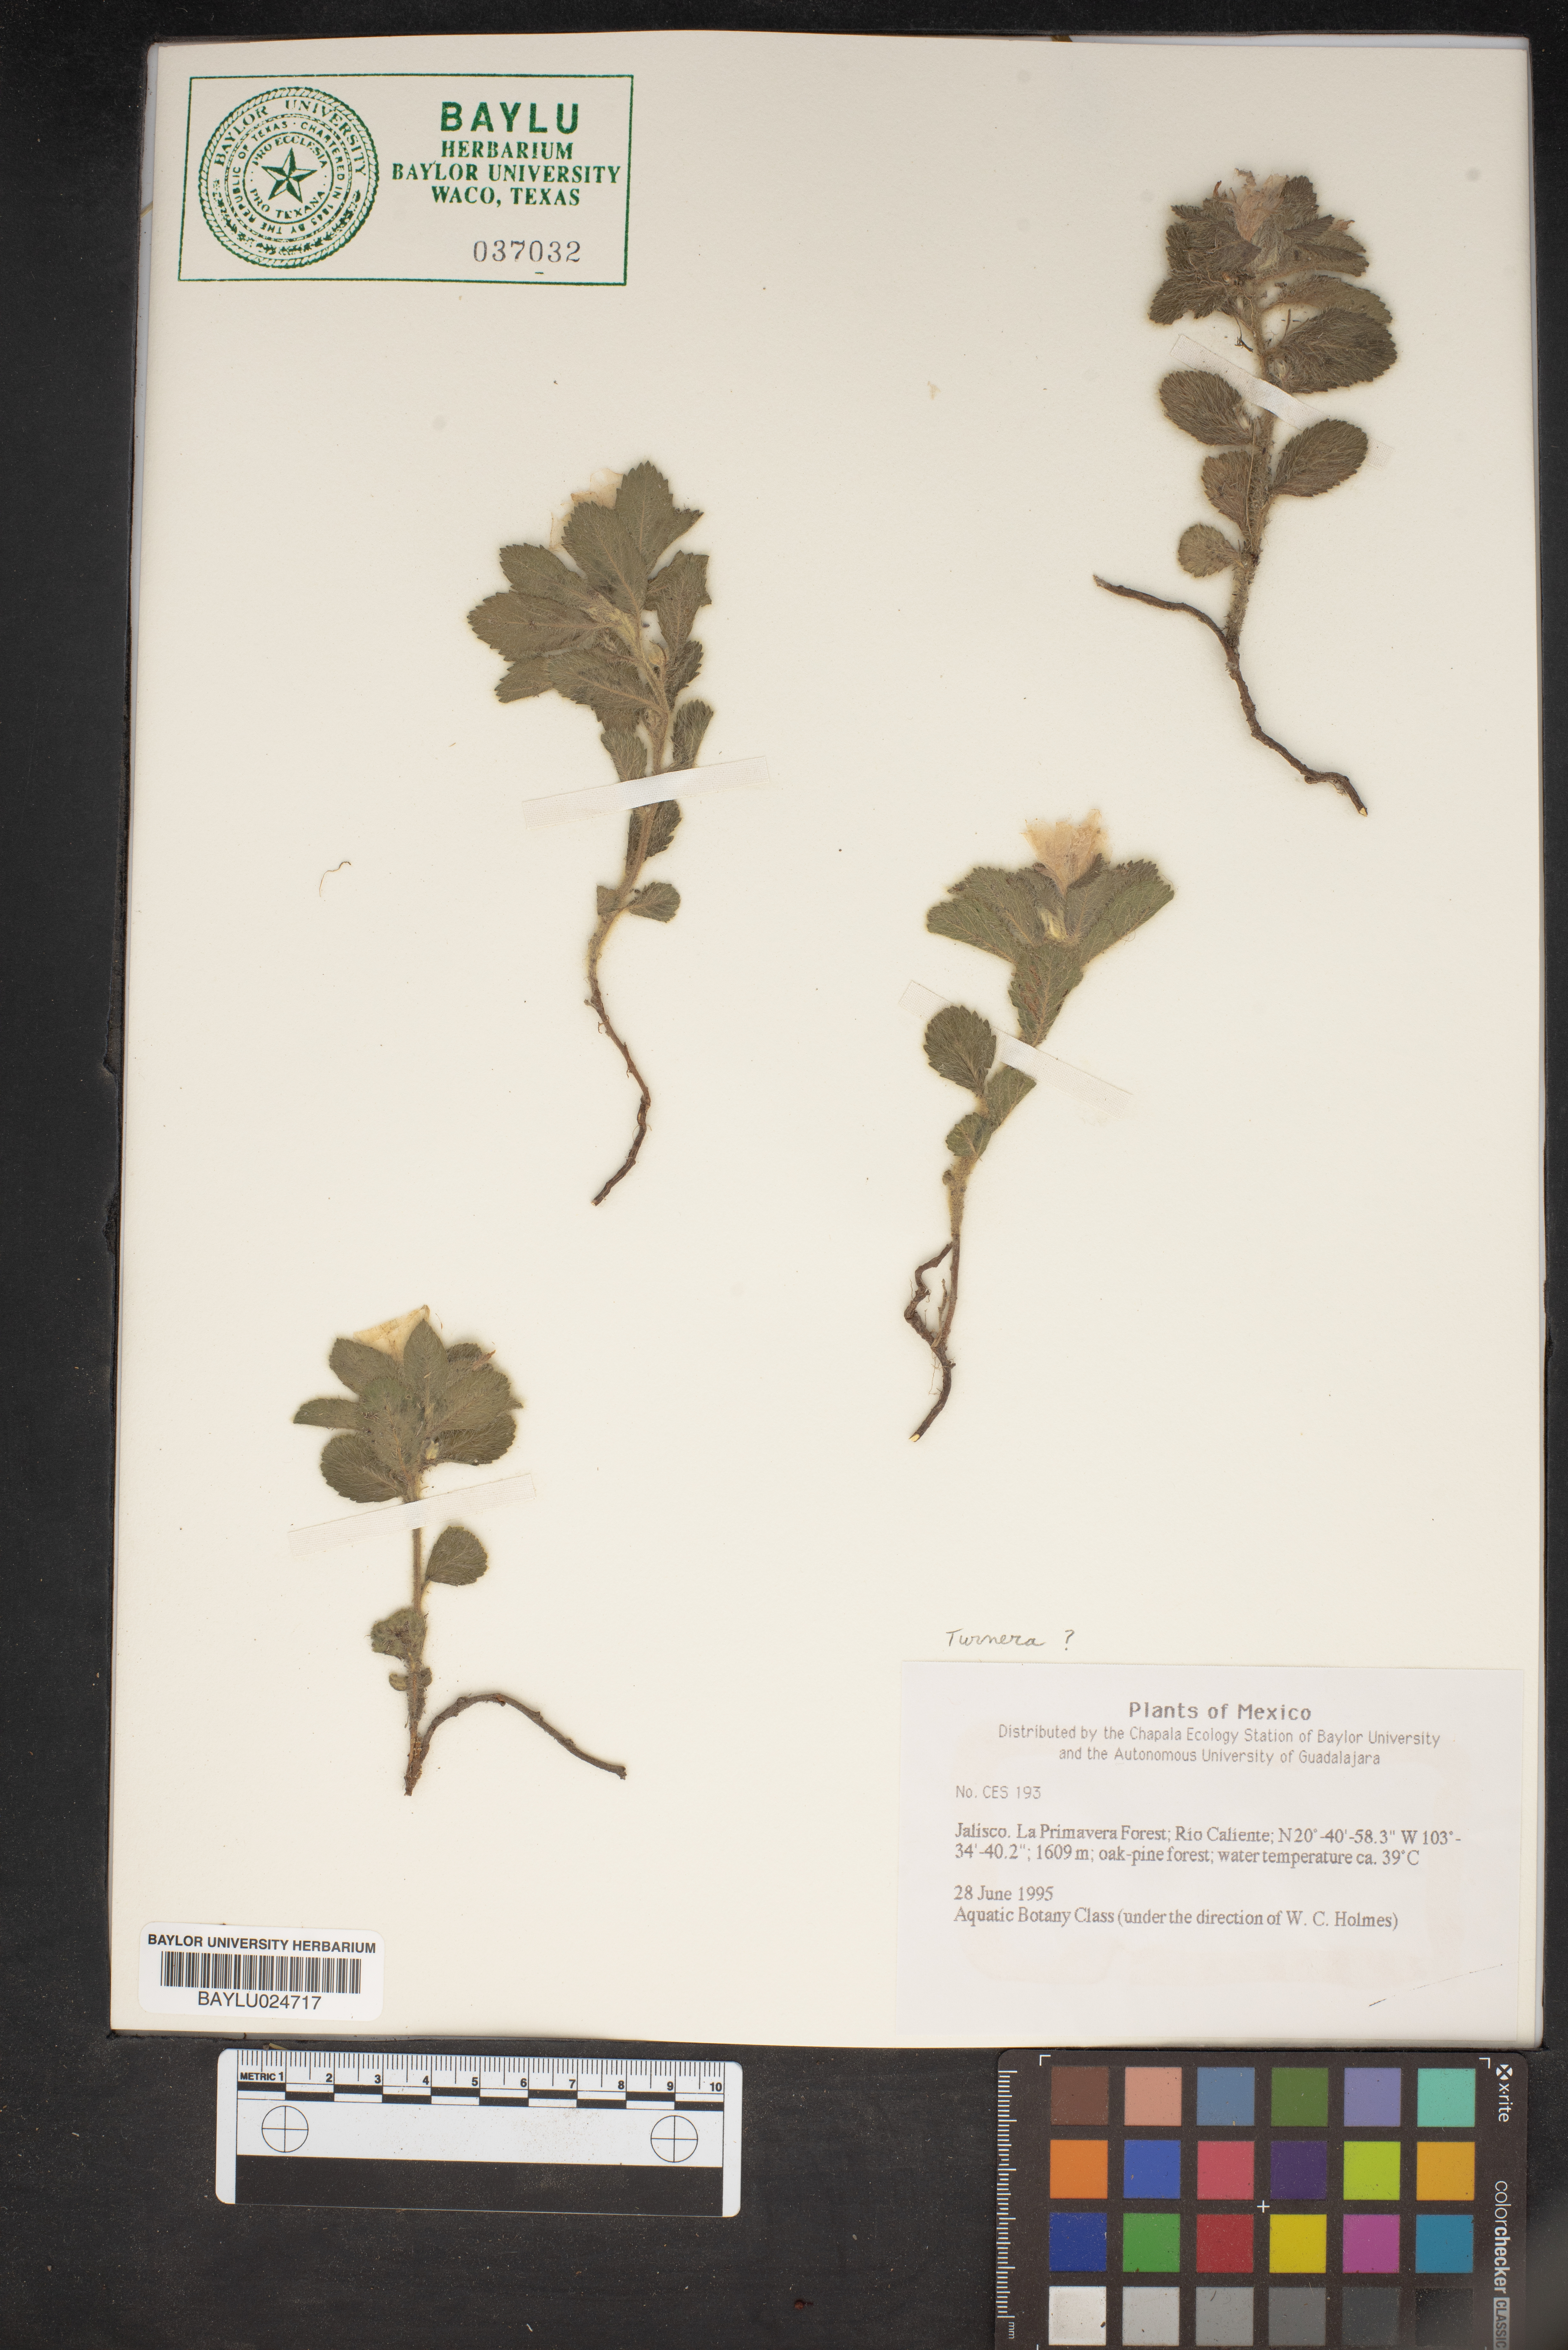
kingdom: Plantae
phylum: Tracheophyta
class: Magnoliopsida
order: Malpighiales
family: Turneraceae
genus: Turnera
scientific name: Turnera
